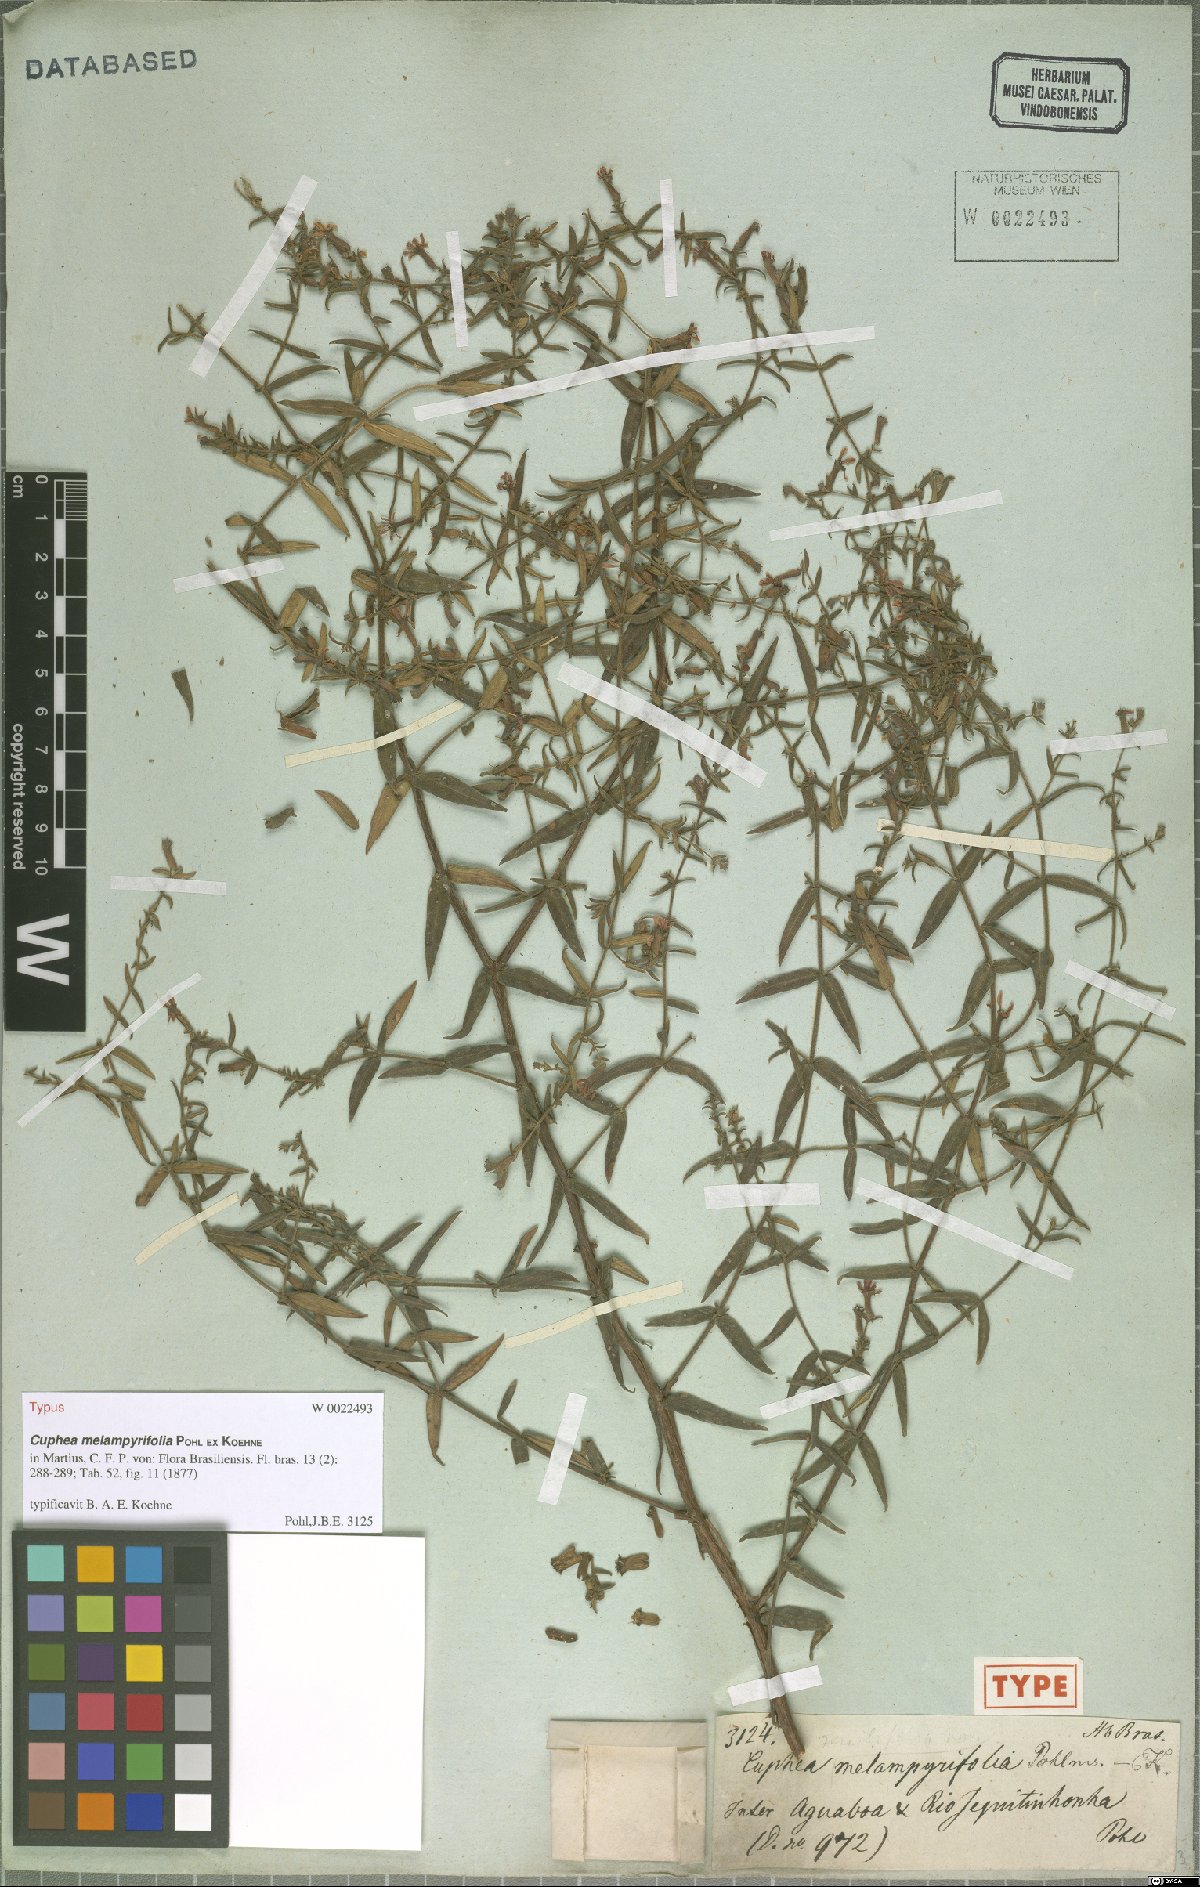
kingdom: Plantae
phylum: Tracheophyta
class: Magnoliopsida
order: Myrtales
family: Lythraceae
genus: Cuphea
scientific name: Cuphea sessiliflora
